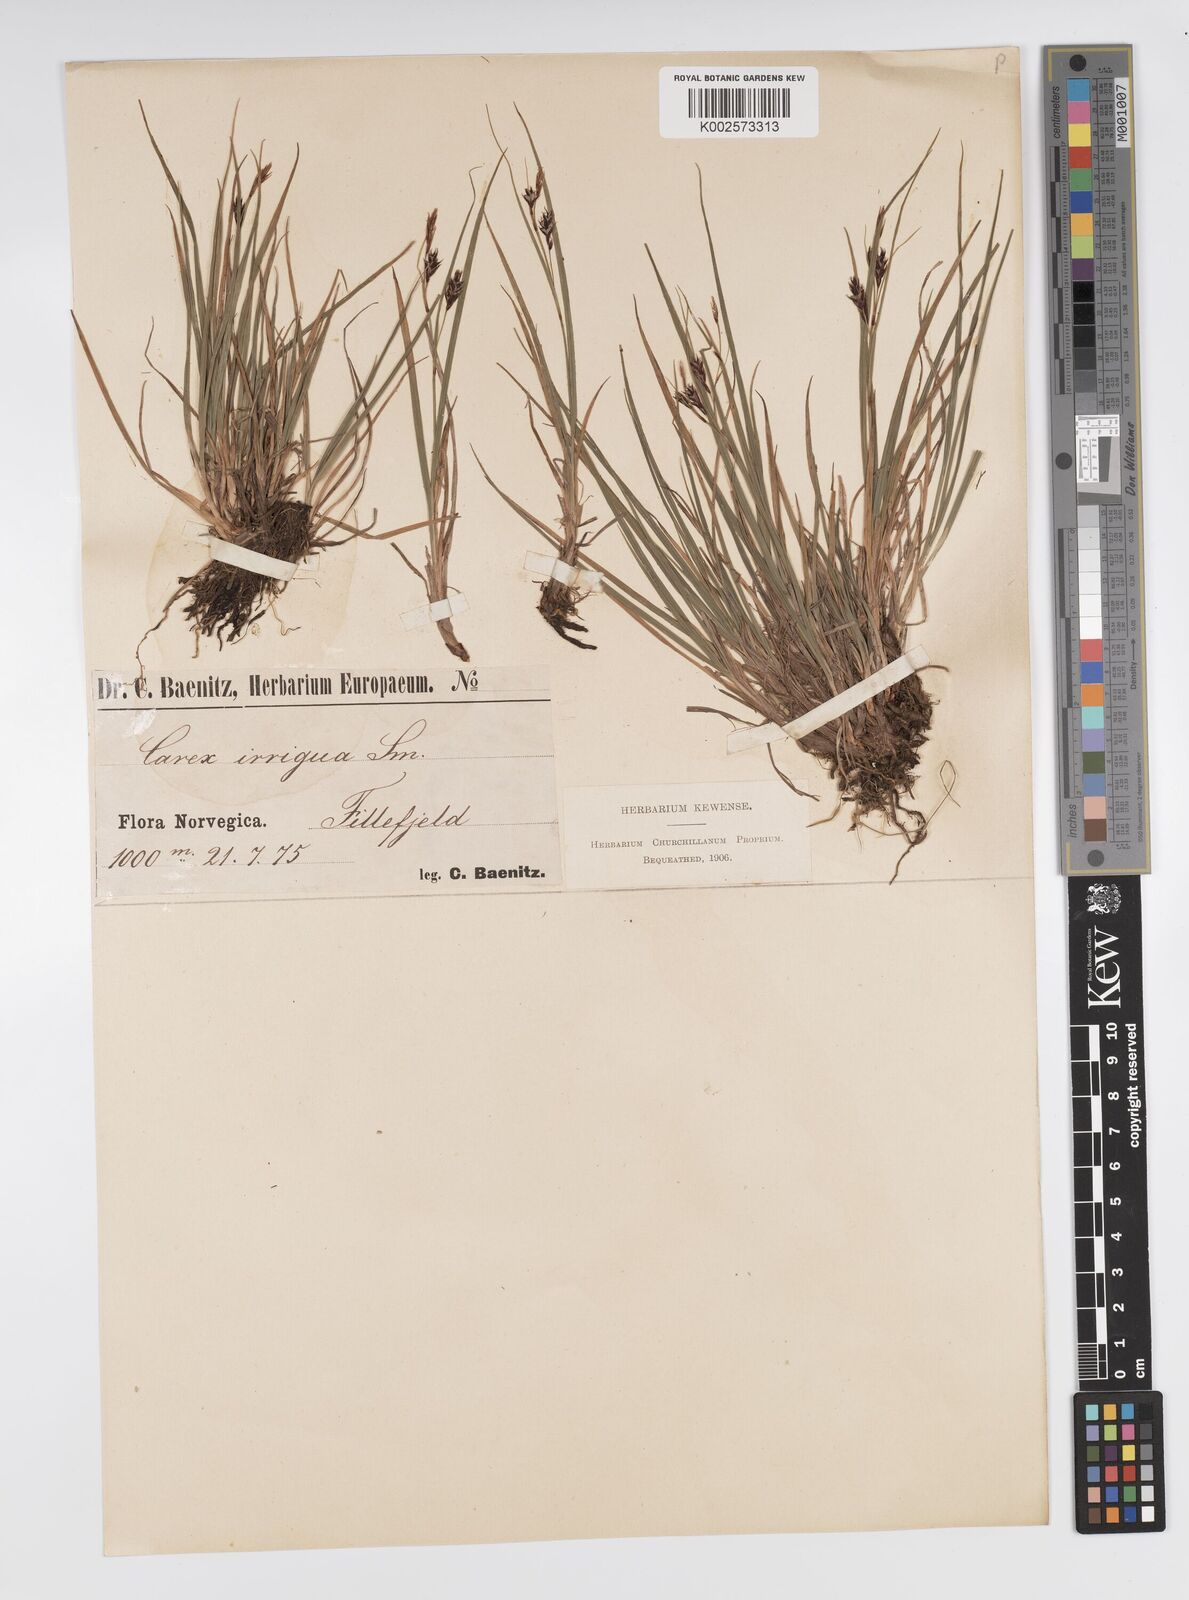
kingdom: Plantae
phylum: Tracheophyta
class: Liliopsida
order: Poales
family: Cyperaceae
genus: Carex
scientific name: Carex magellanica
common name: Bog sedge
